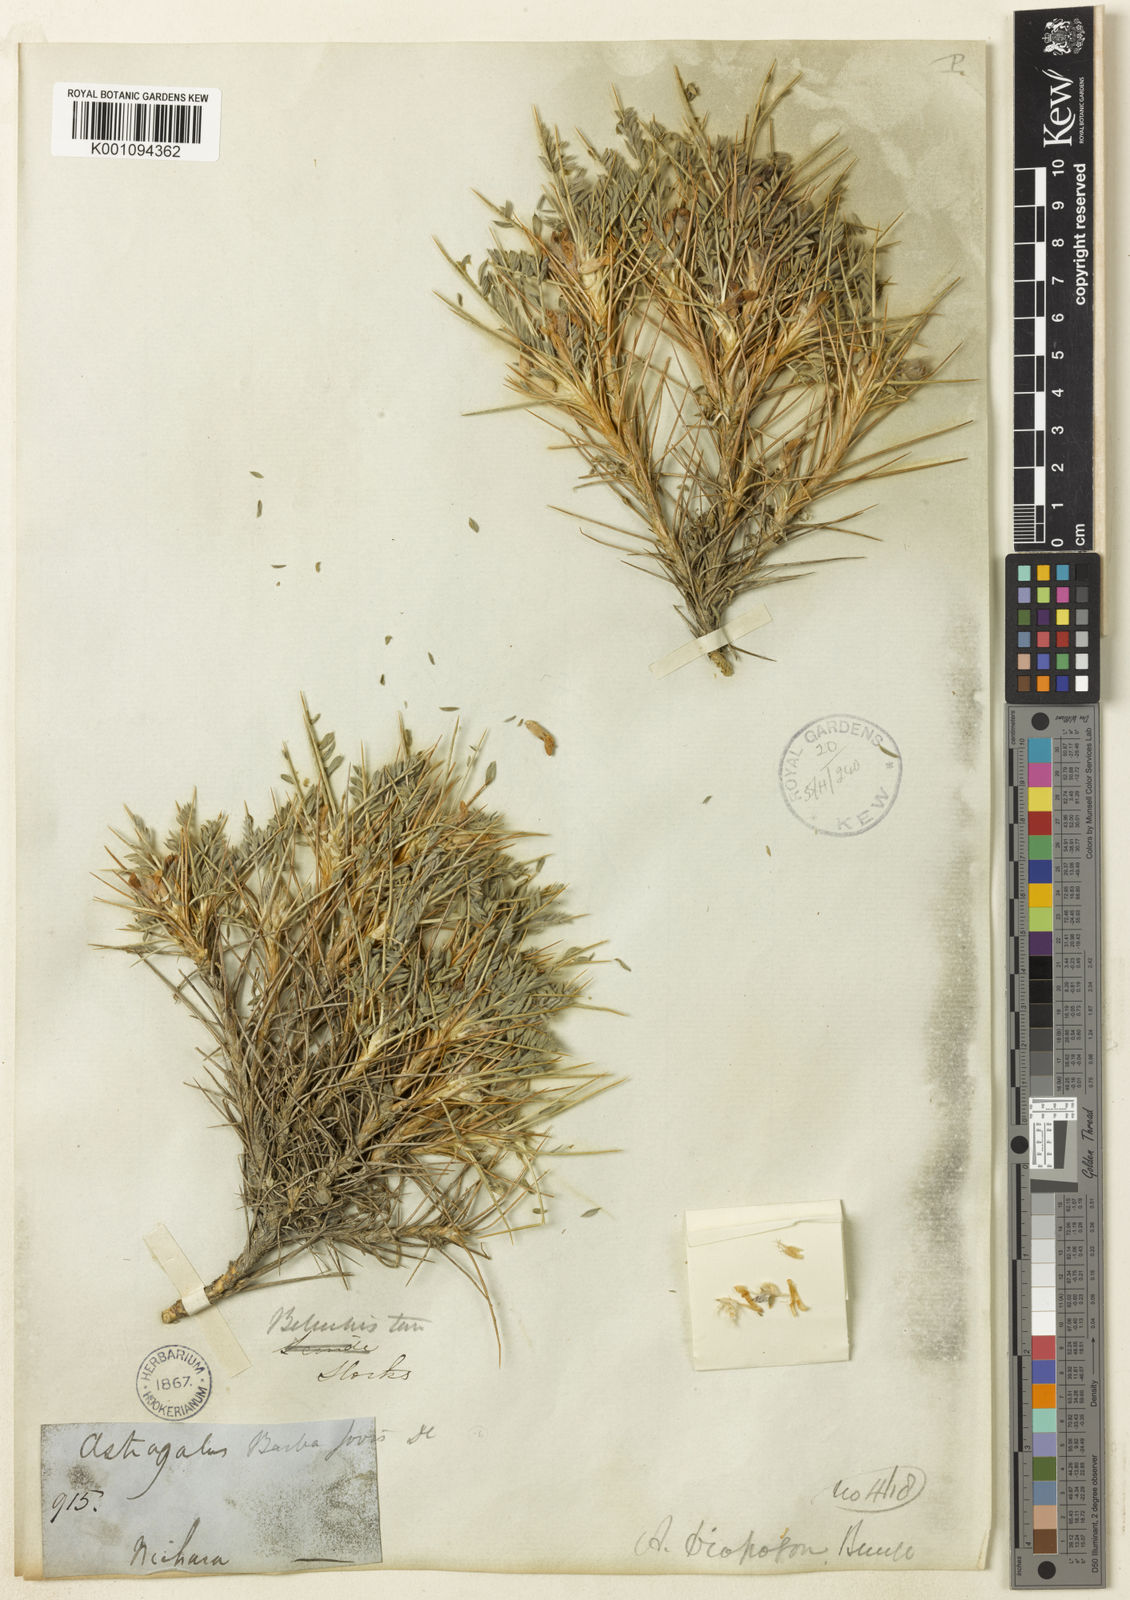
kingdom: Plantae
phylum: Tracheophyta
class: Magnoliopsida
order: Fabales
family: Fabaceae
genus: Astragalus
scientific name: Astragalus
